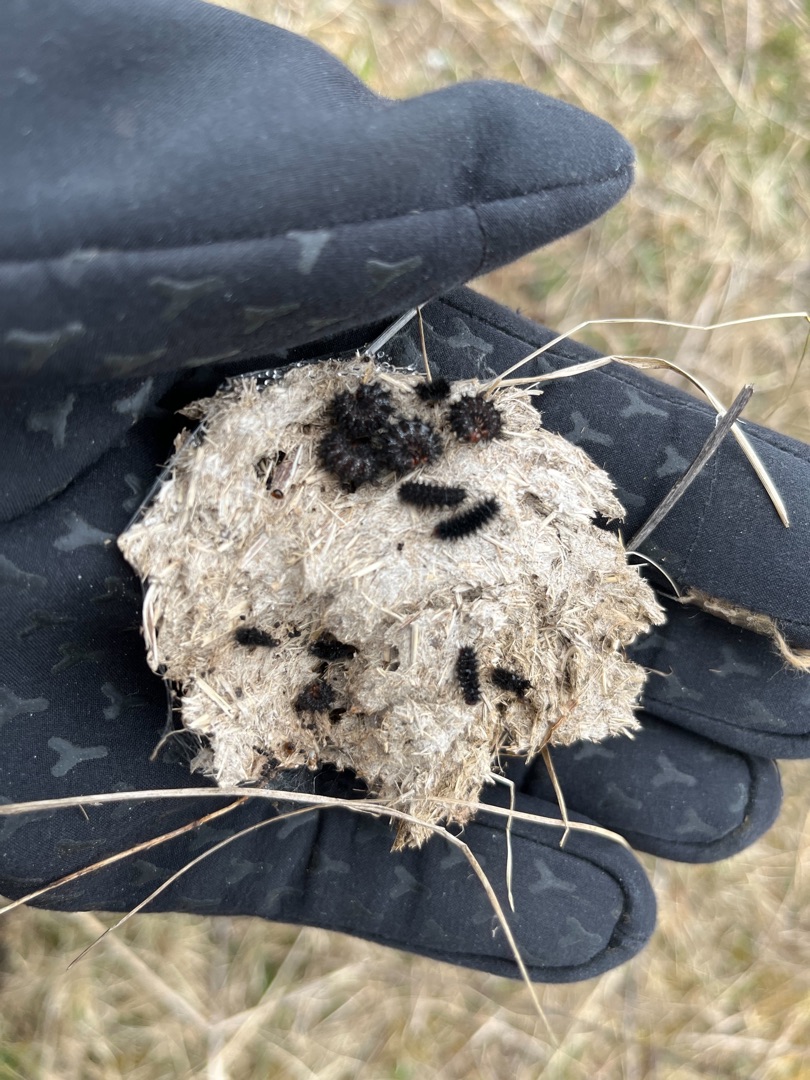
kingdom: Animalia
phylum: Arthropoda
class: Insecta
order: Lepidoptera
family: Nymphalidae
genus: Melitaea
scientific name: Melitaea cinxia
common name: Okkergul pletvinge
